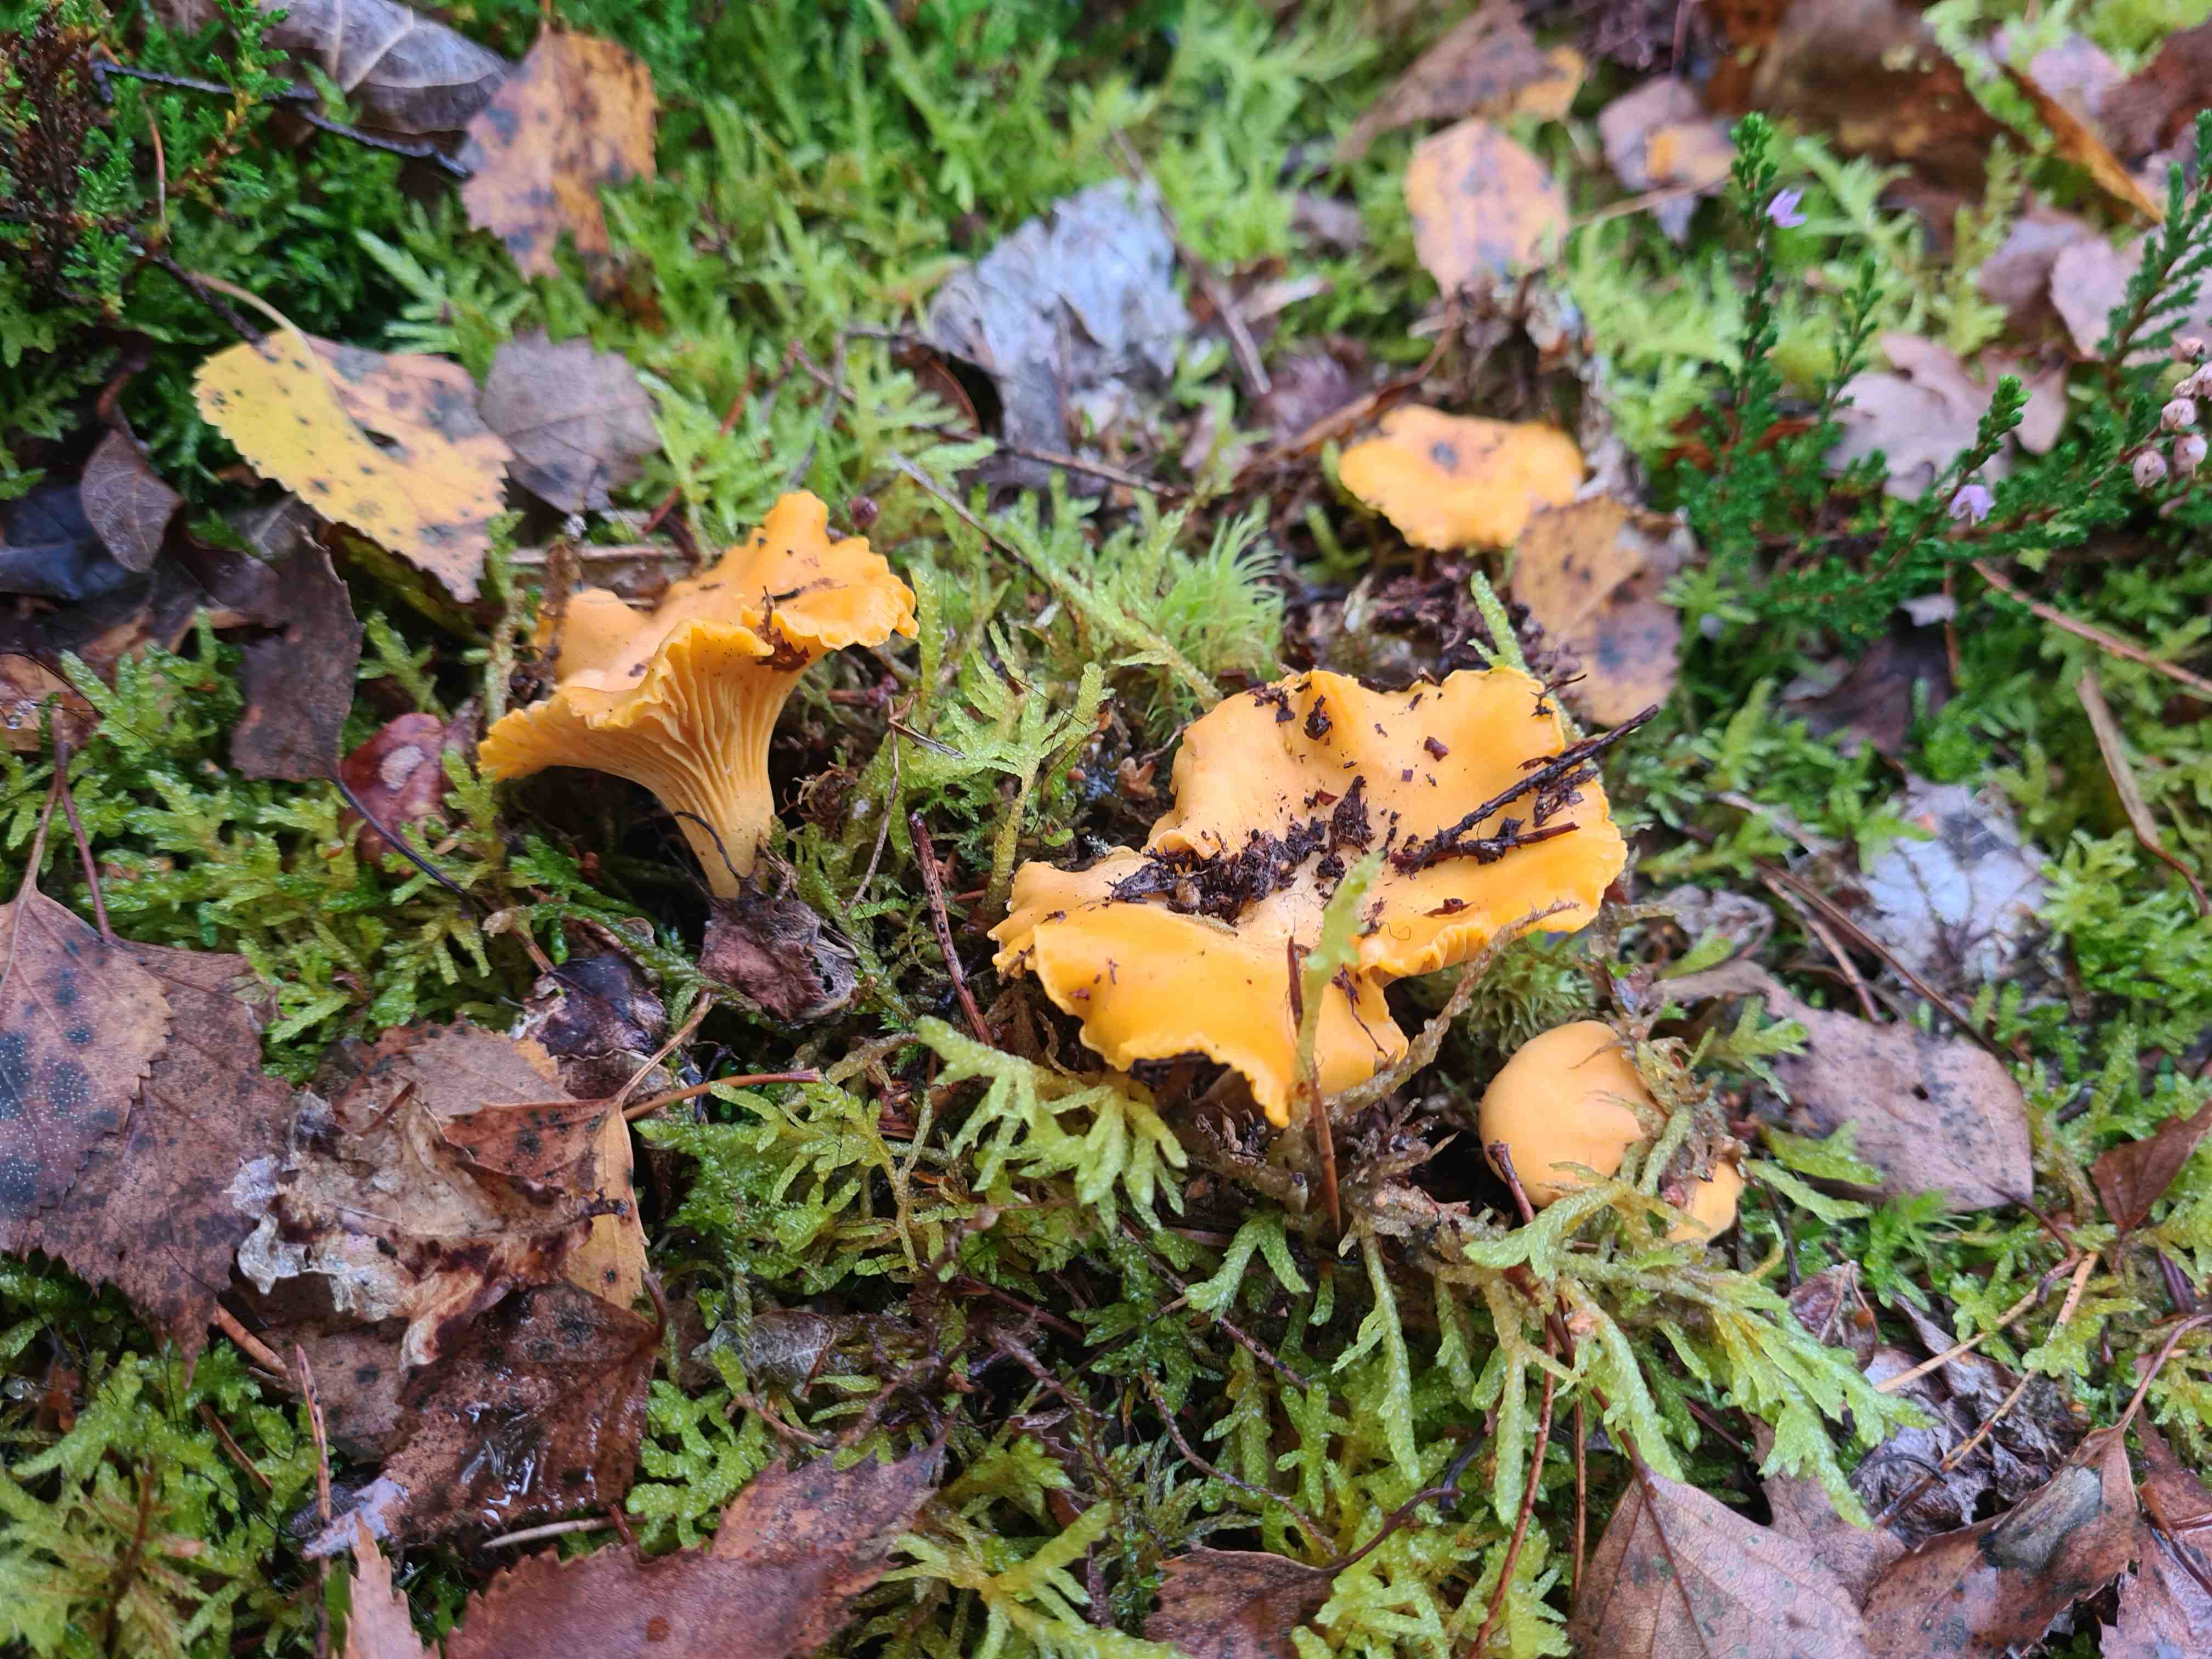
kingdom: Fungi
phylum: Basidiomycota
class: Agaricomycetes
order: Cantharellales
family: Hydnaceae
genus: Cantharellus
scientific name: Cantharellus cibarius
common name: almindelig kantarel
